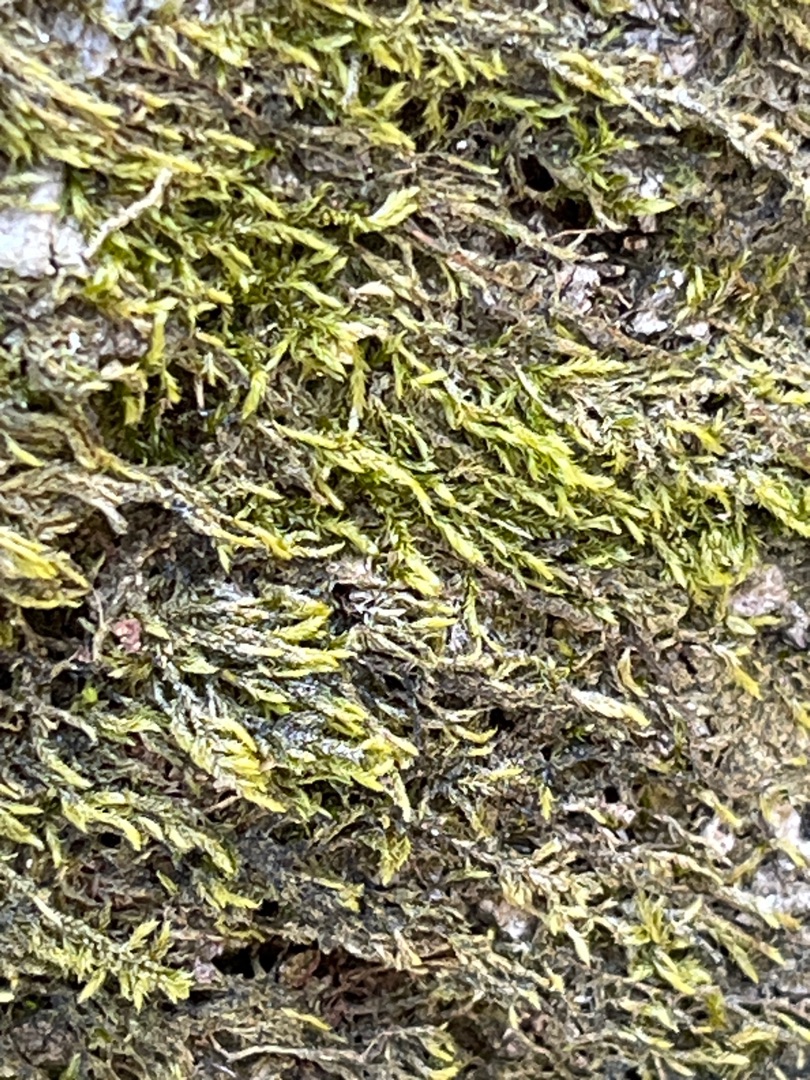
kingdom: Plantae
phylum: Bryophyta
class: Bryopsida
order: Hypnales
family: Hypnaceae
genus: Hypnum
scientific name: Hypnum
